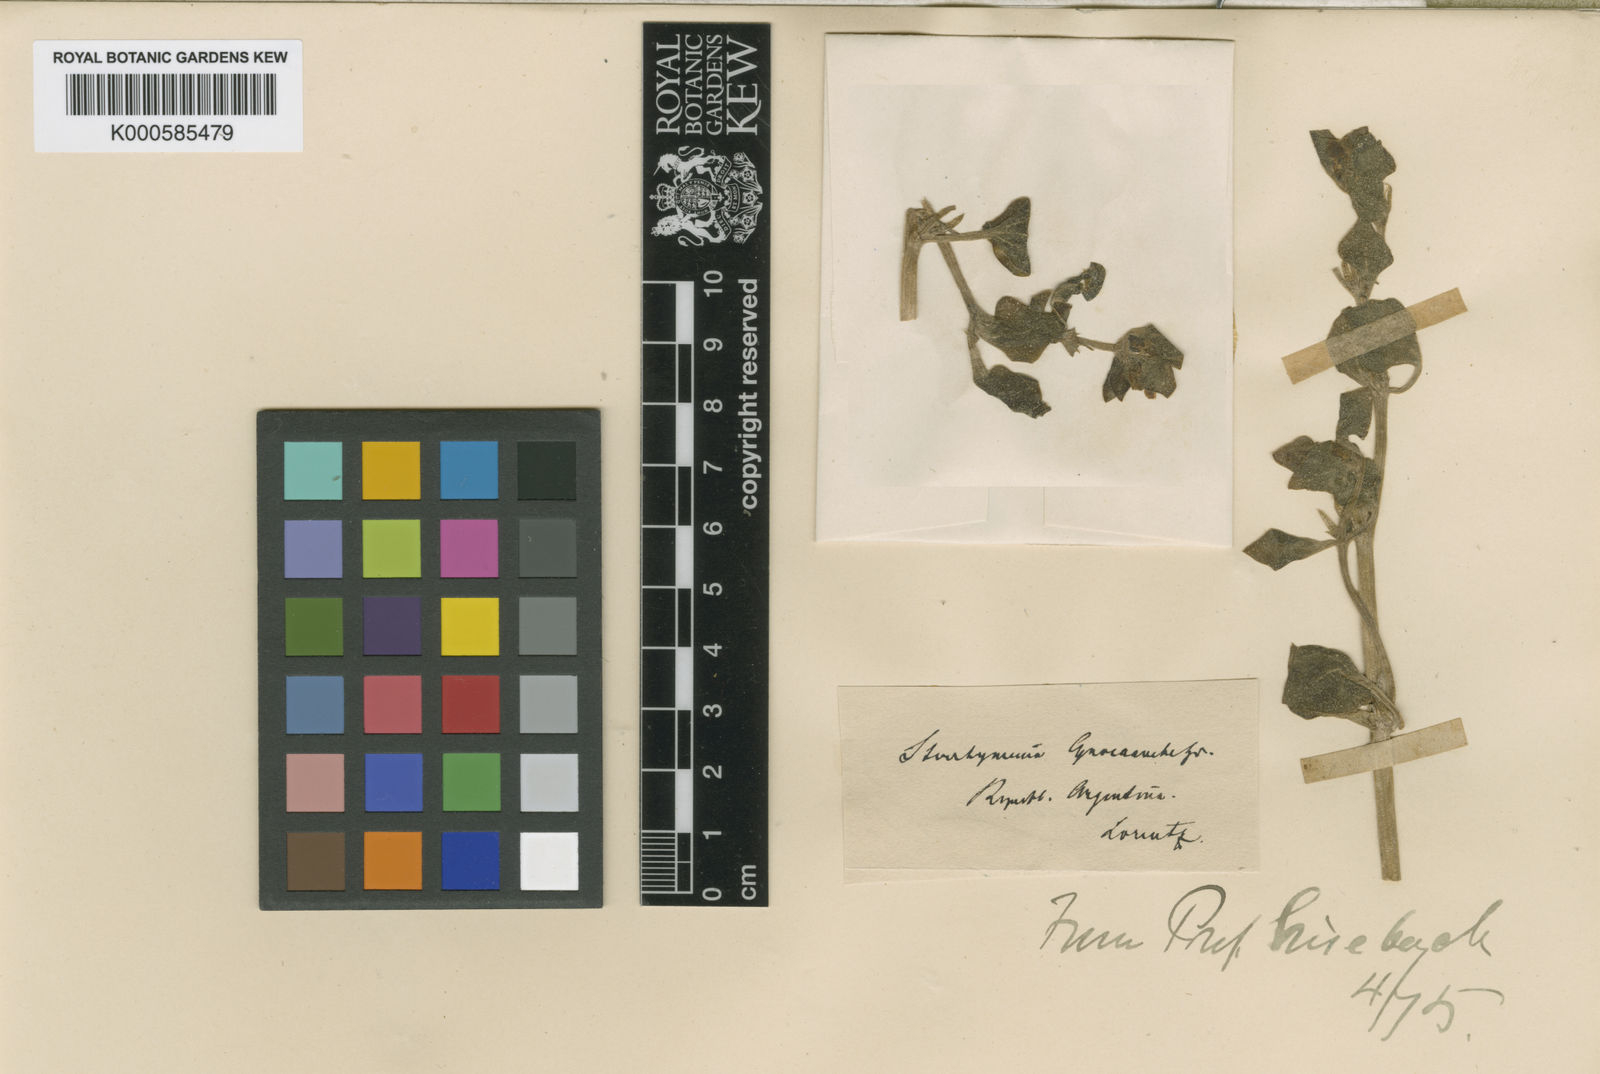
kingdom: Plantae
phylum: Tracheophyta
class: Magnoliopsida
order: Solanales
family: Solanaceae
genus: Sclerophylax
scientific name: Sclerophylax cynocrambe
